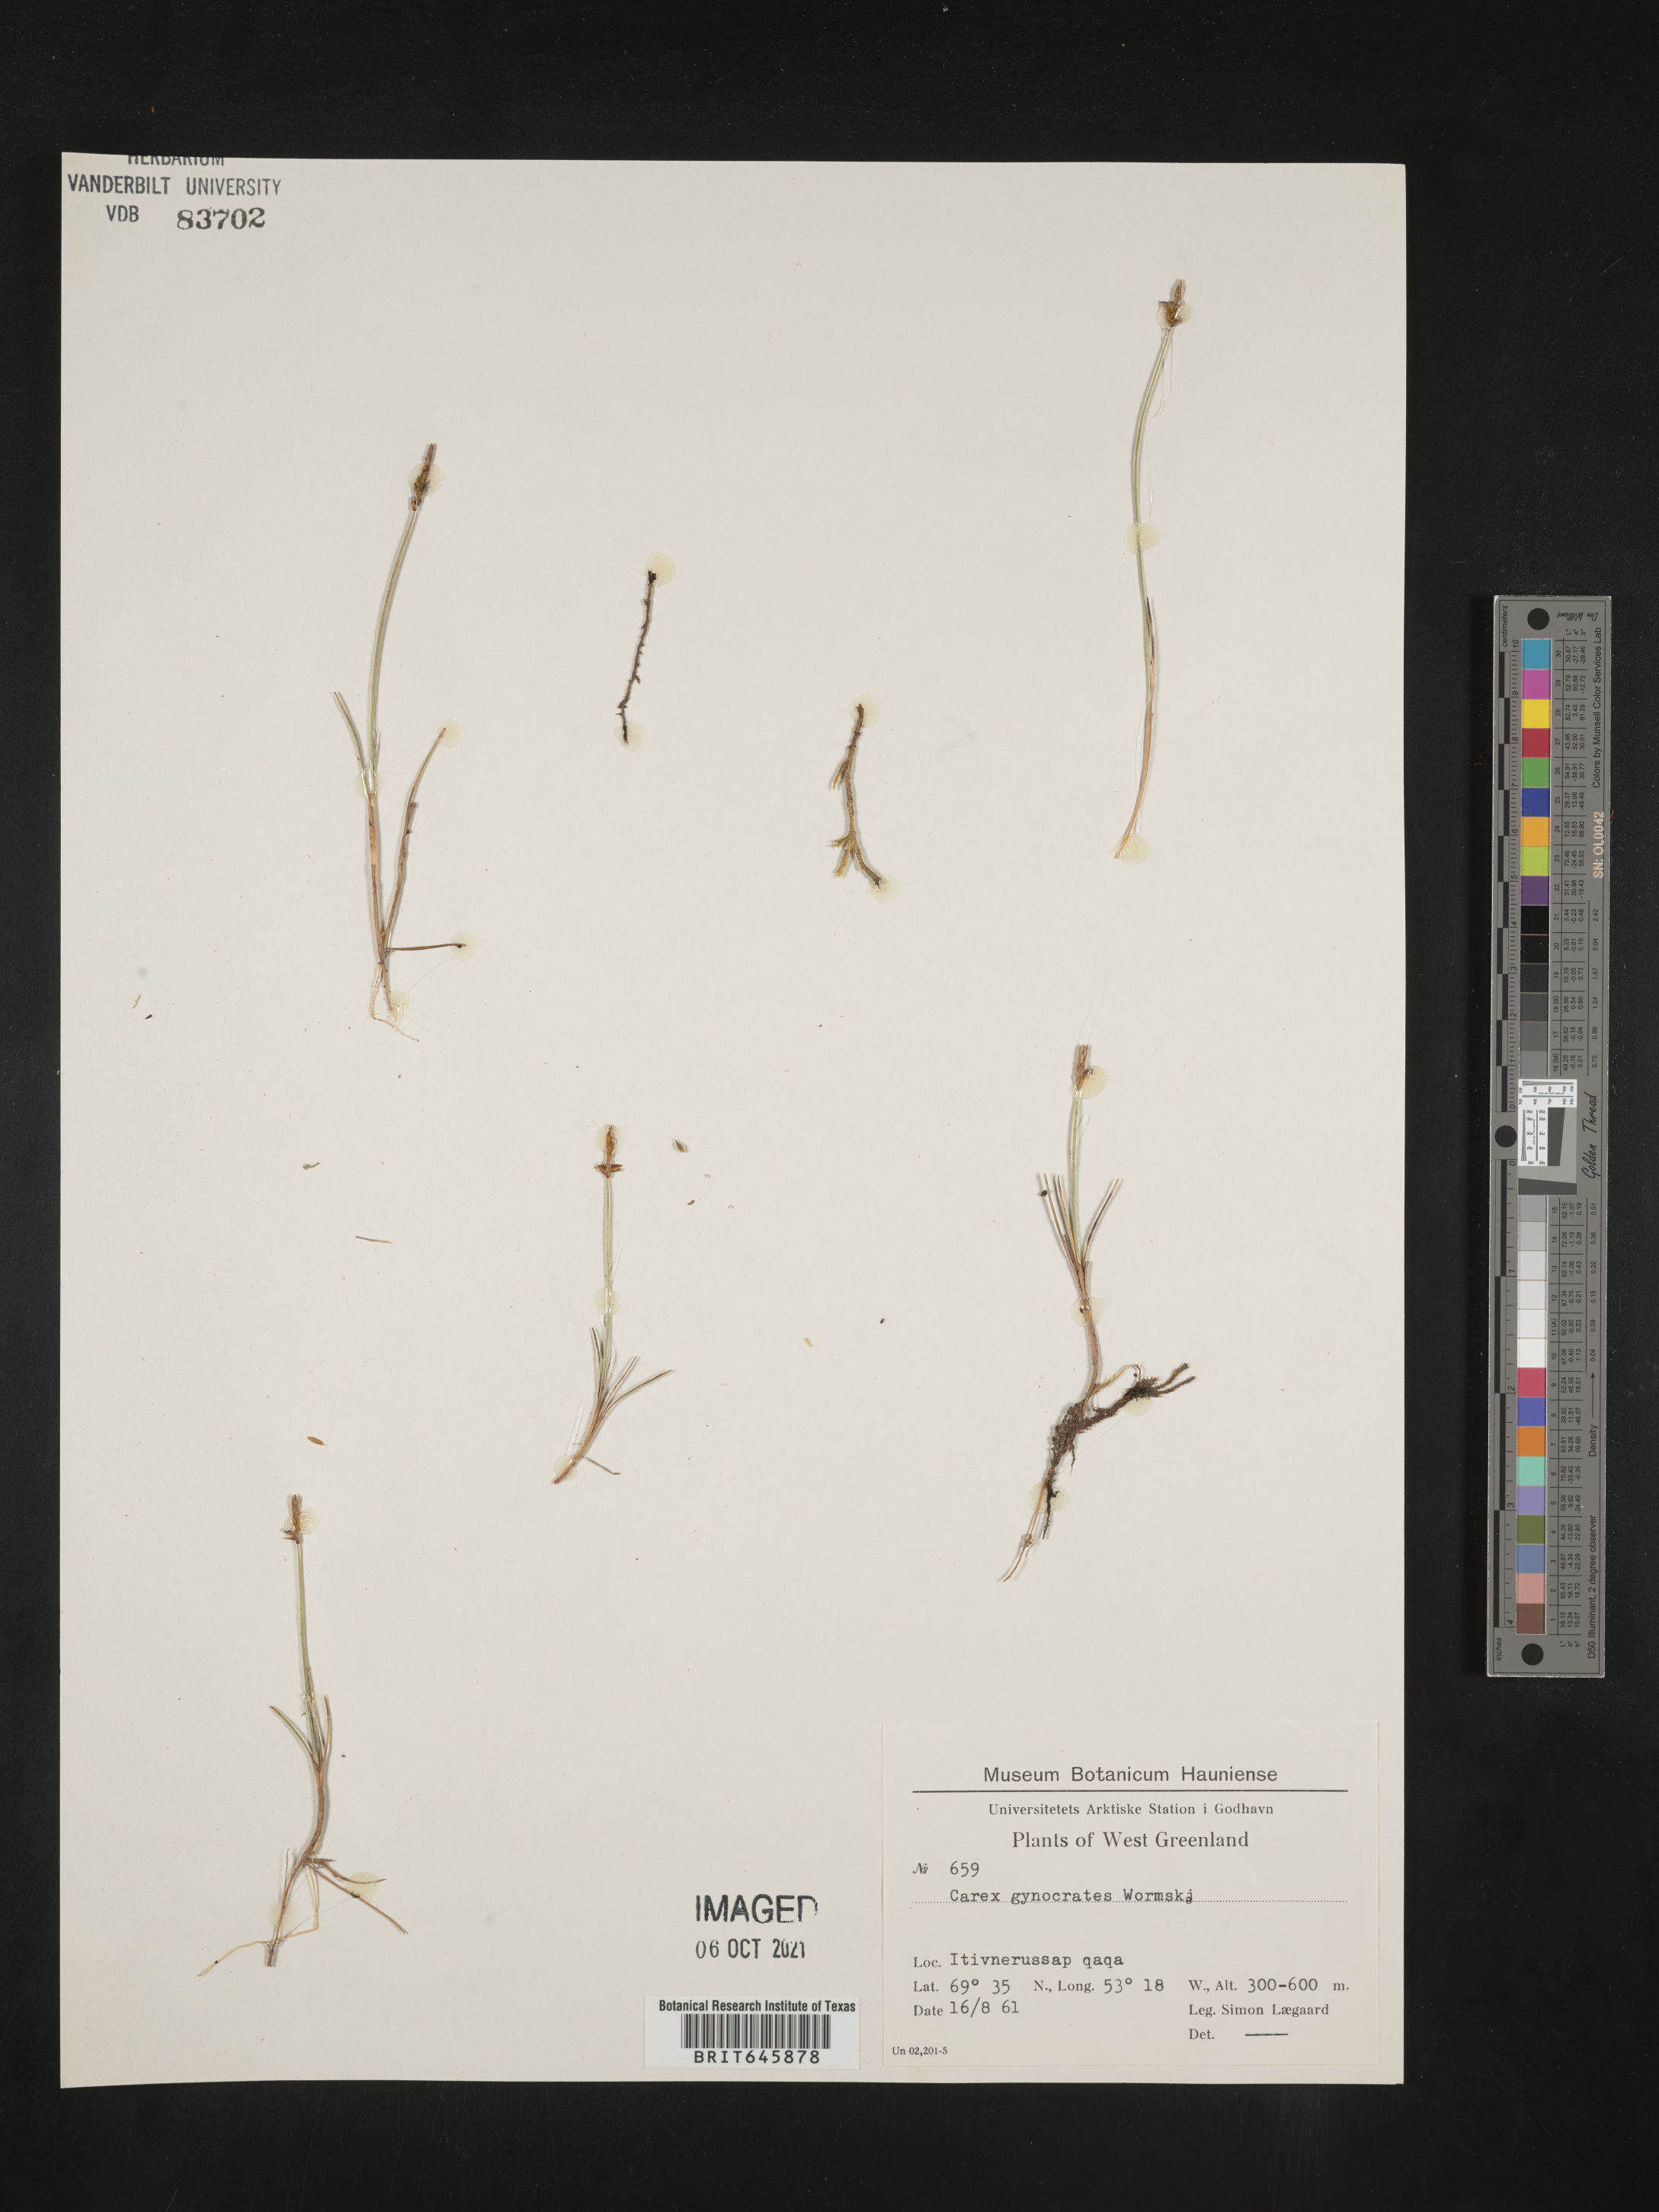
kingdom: Plantae
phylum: Tracheophyta
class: Liliopsida
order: Poales
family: Cyperaceae
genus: Carex
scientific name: Carex nardina
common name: Nard sedge
